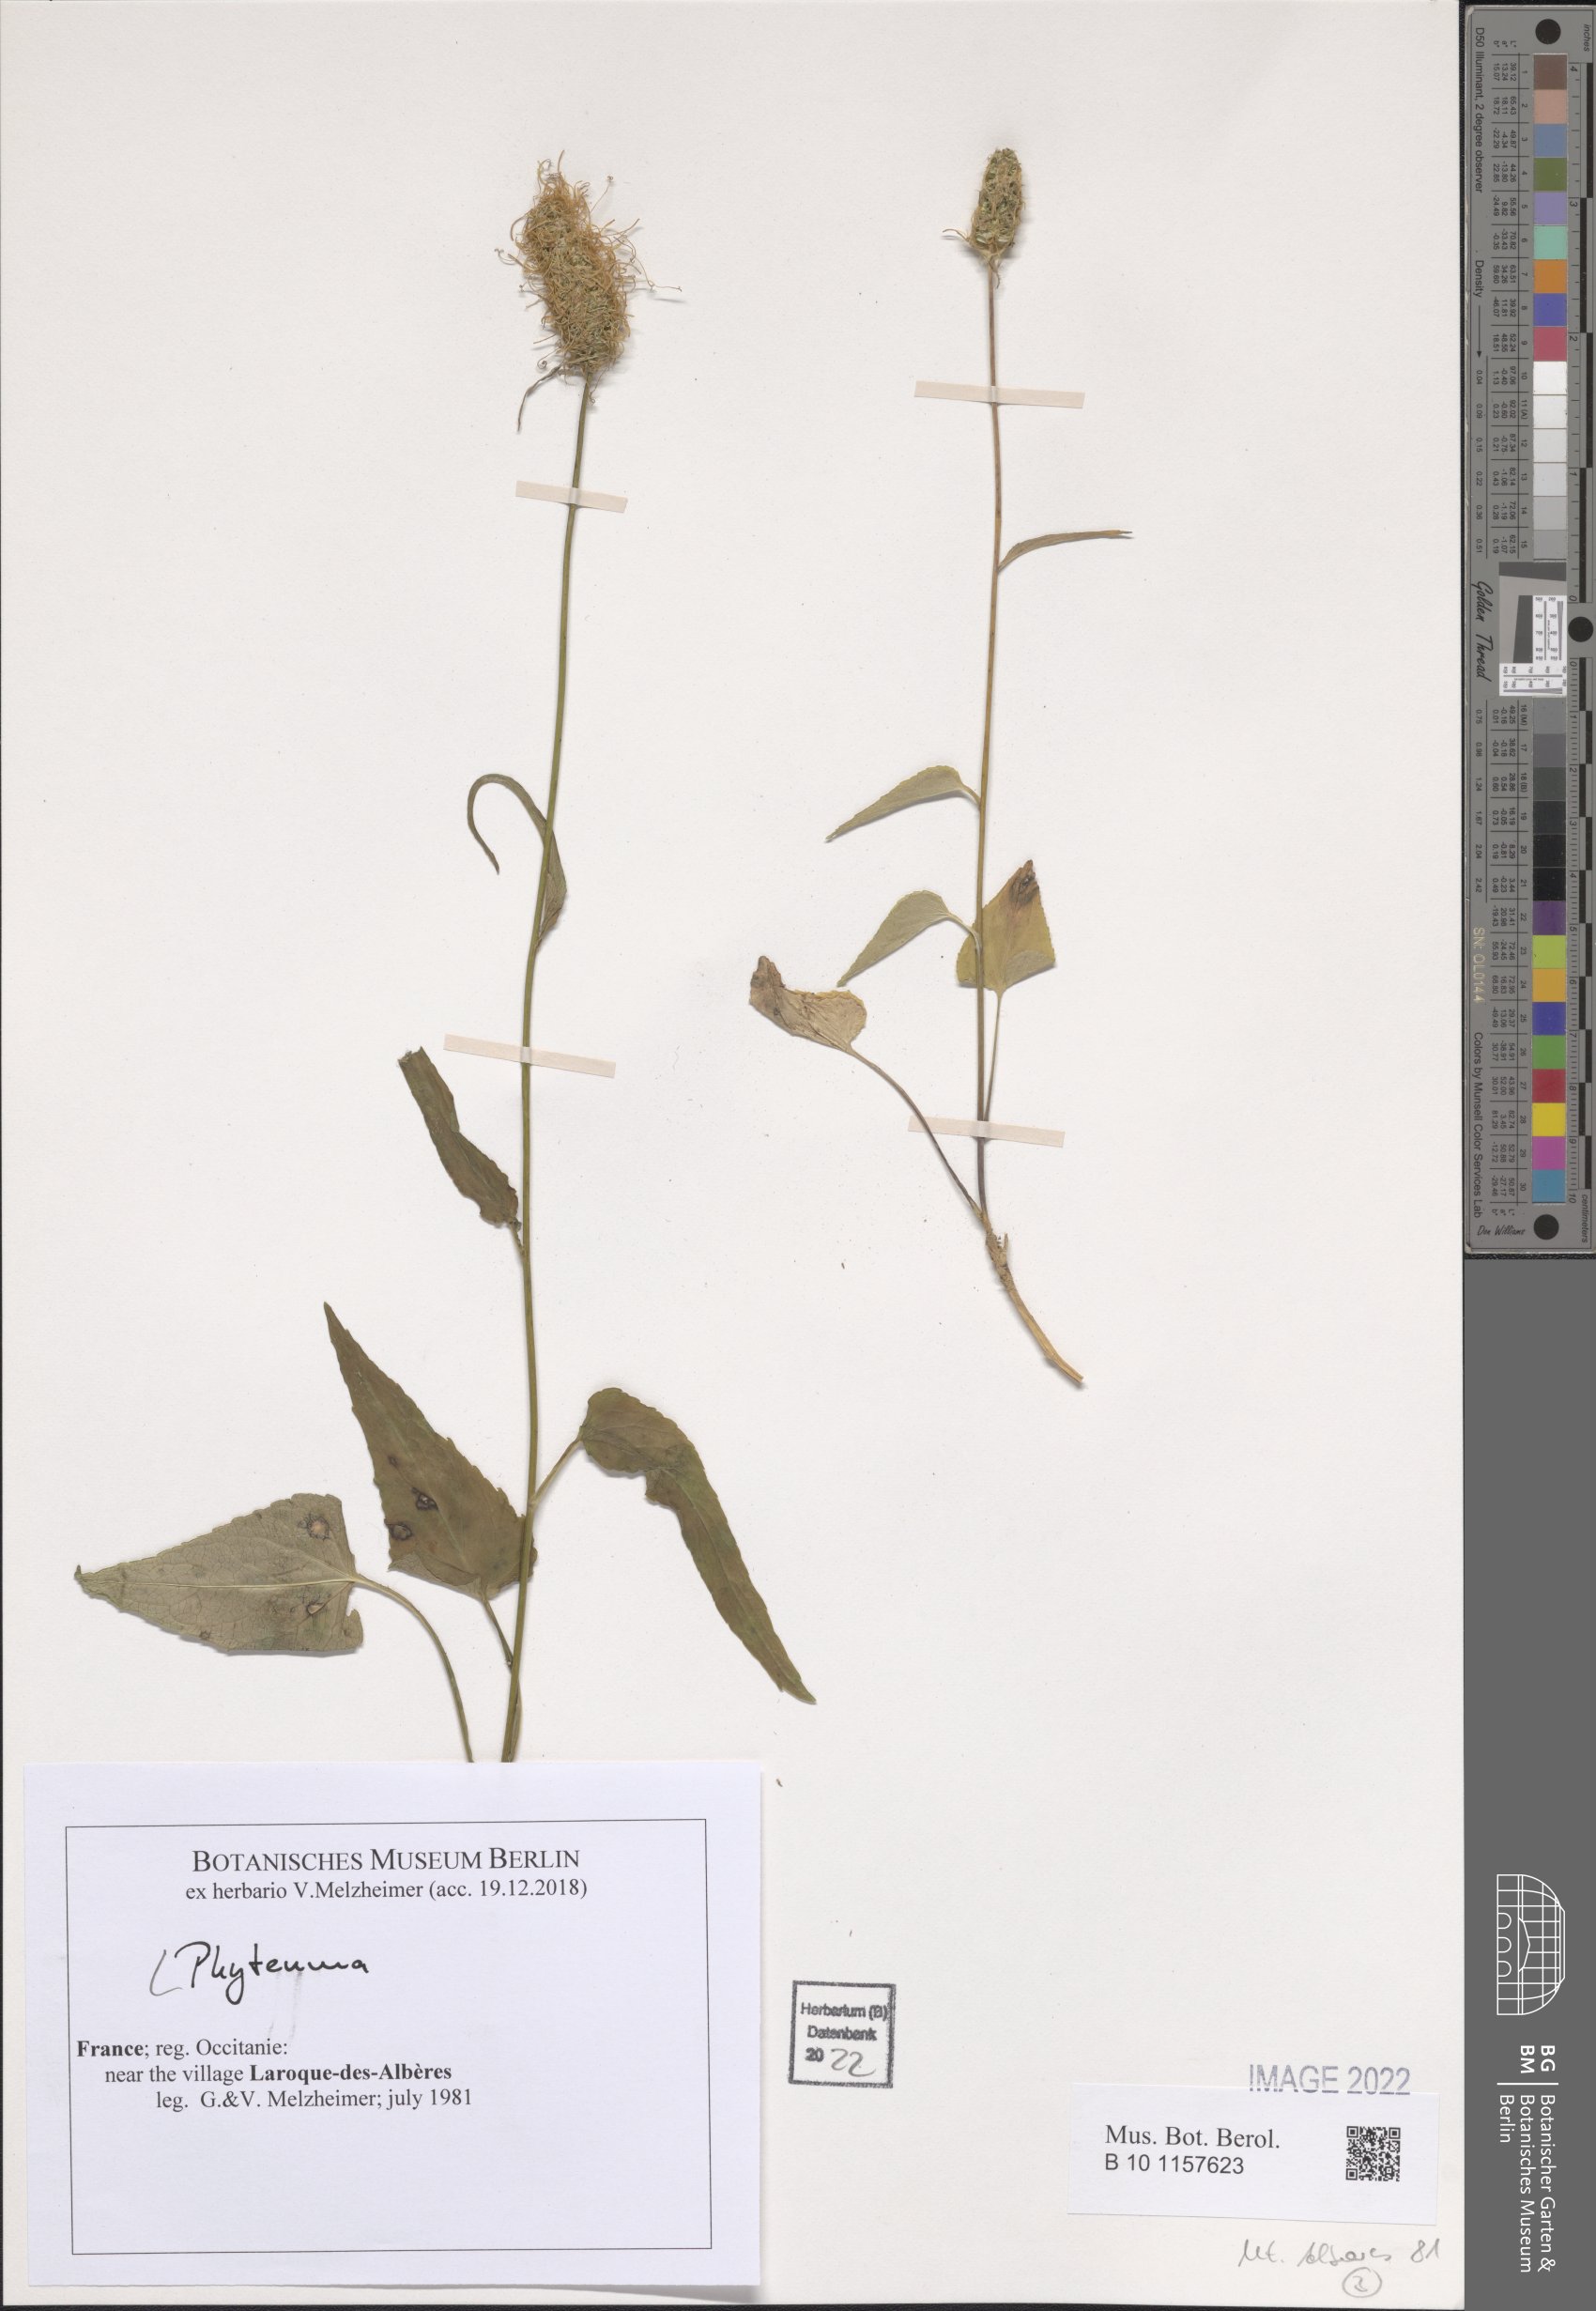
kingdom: Plantae
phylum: Tracheophyta
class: Magnoliopsida
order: Asterales
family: Campanulaceae
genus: Phyteuma
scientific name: Phyteuma
